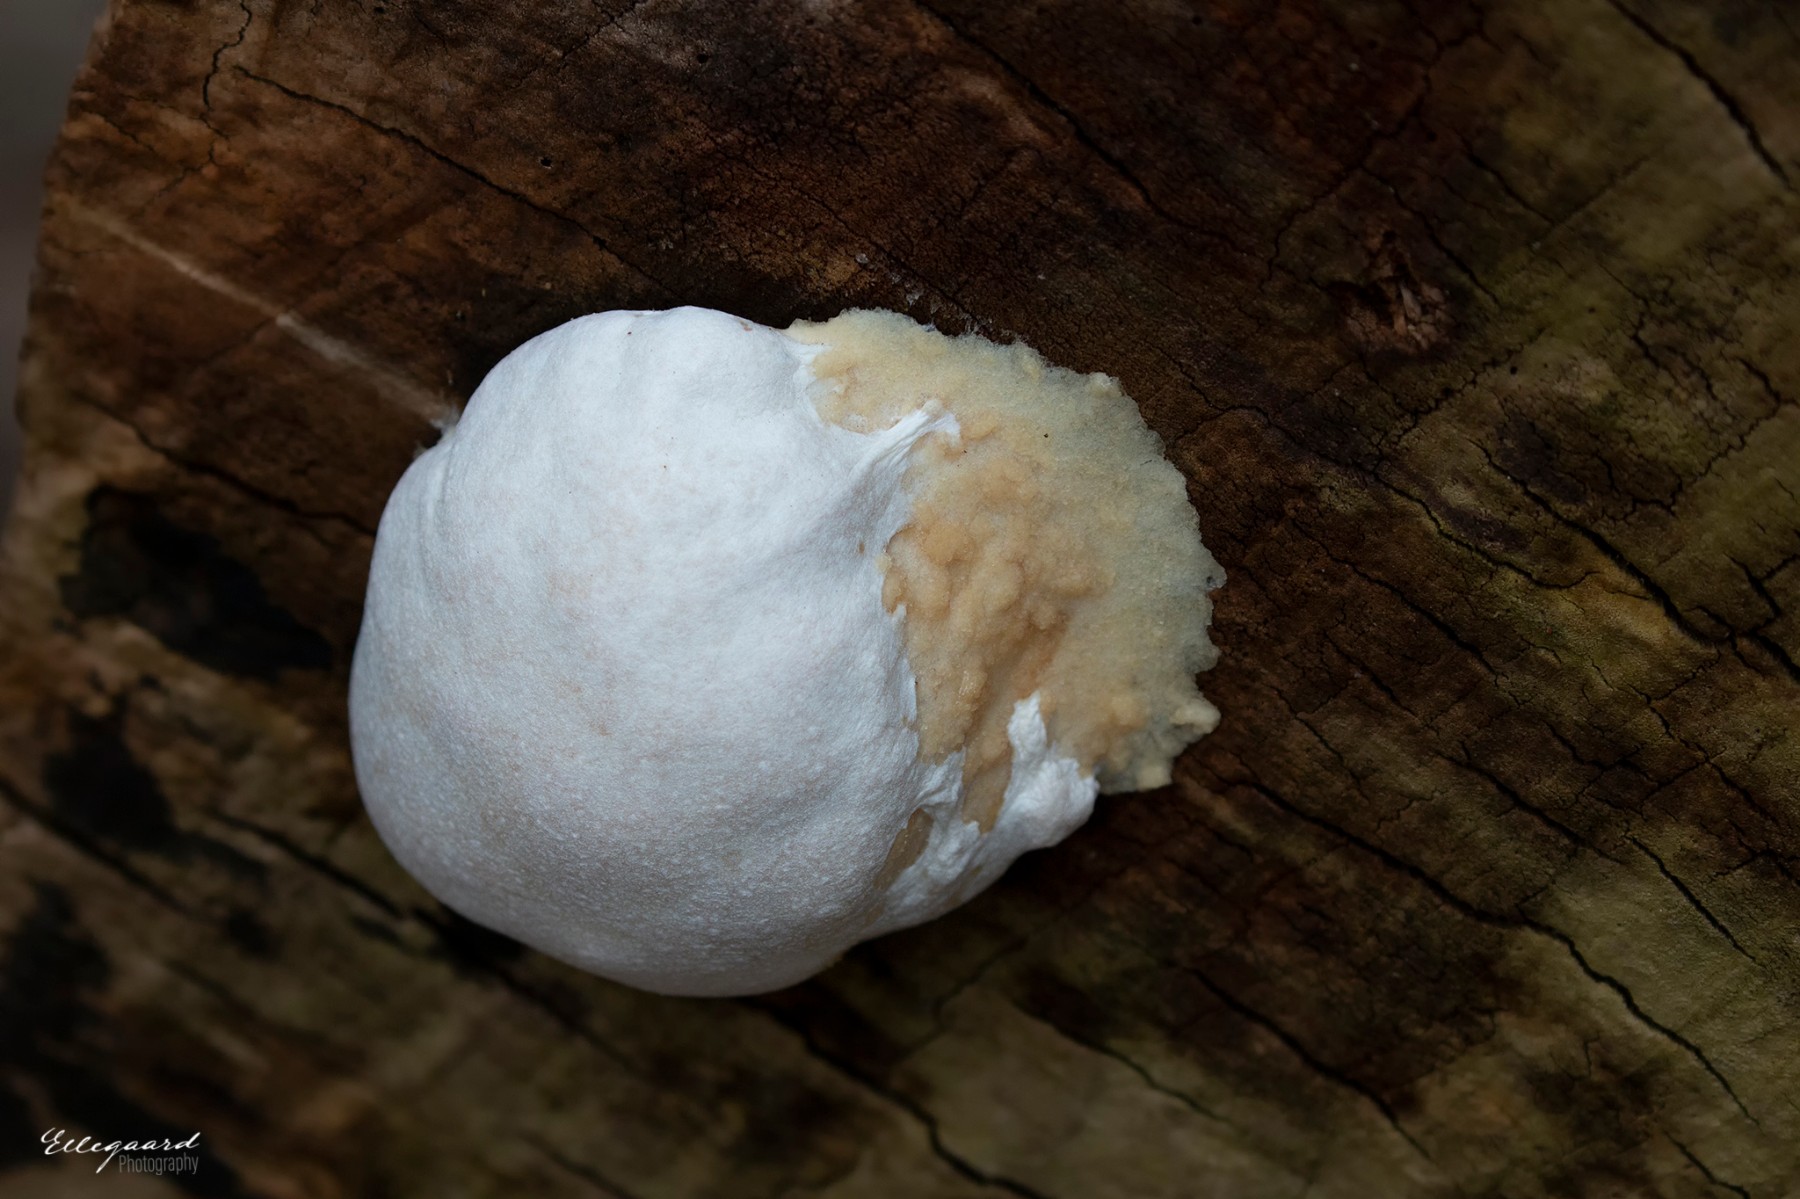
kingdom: Protozoa
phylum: Mycetozoa
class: Myxomycetes
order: Cribrariales
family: Tubiferaceae
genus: Reticularia
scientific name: Reticularia lycoperdon
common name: skinnende støvpude
